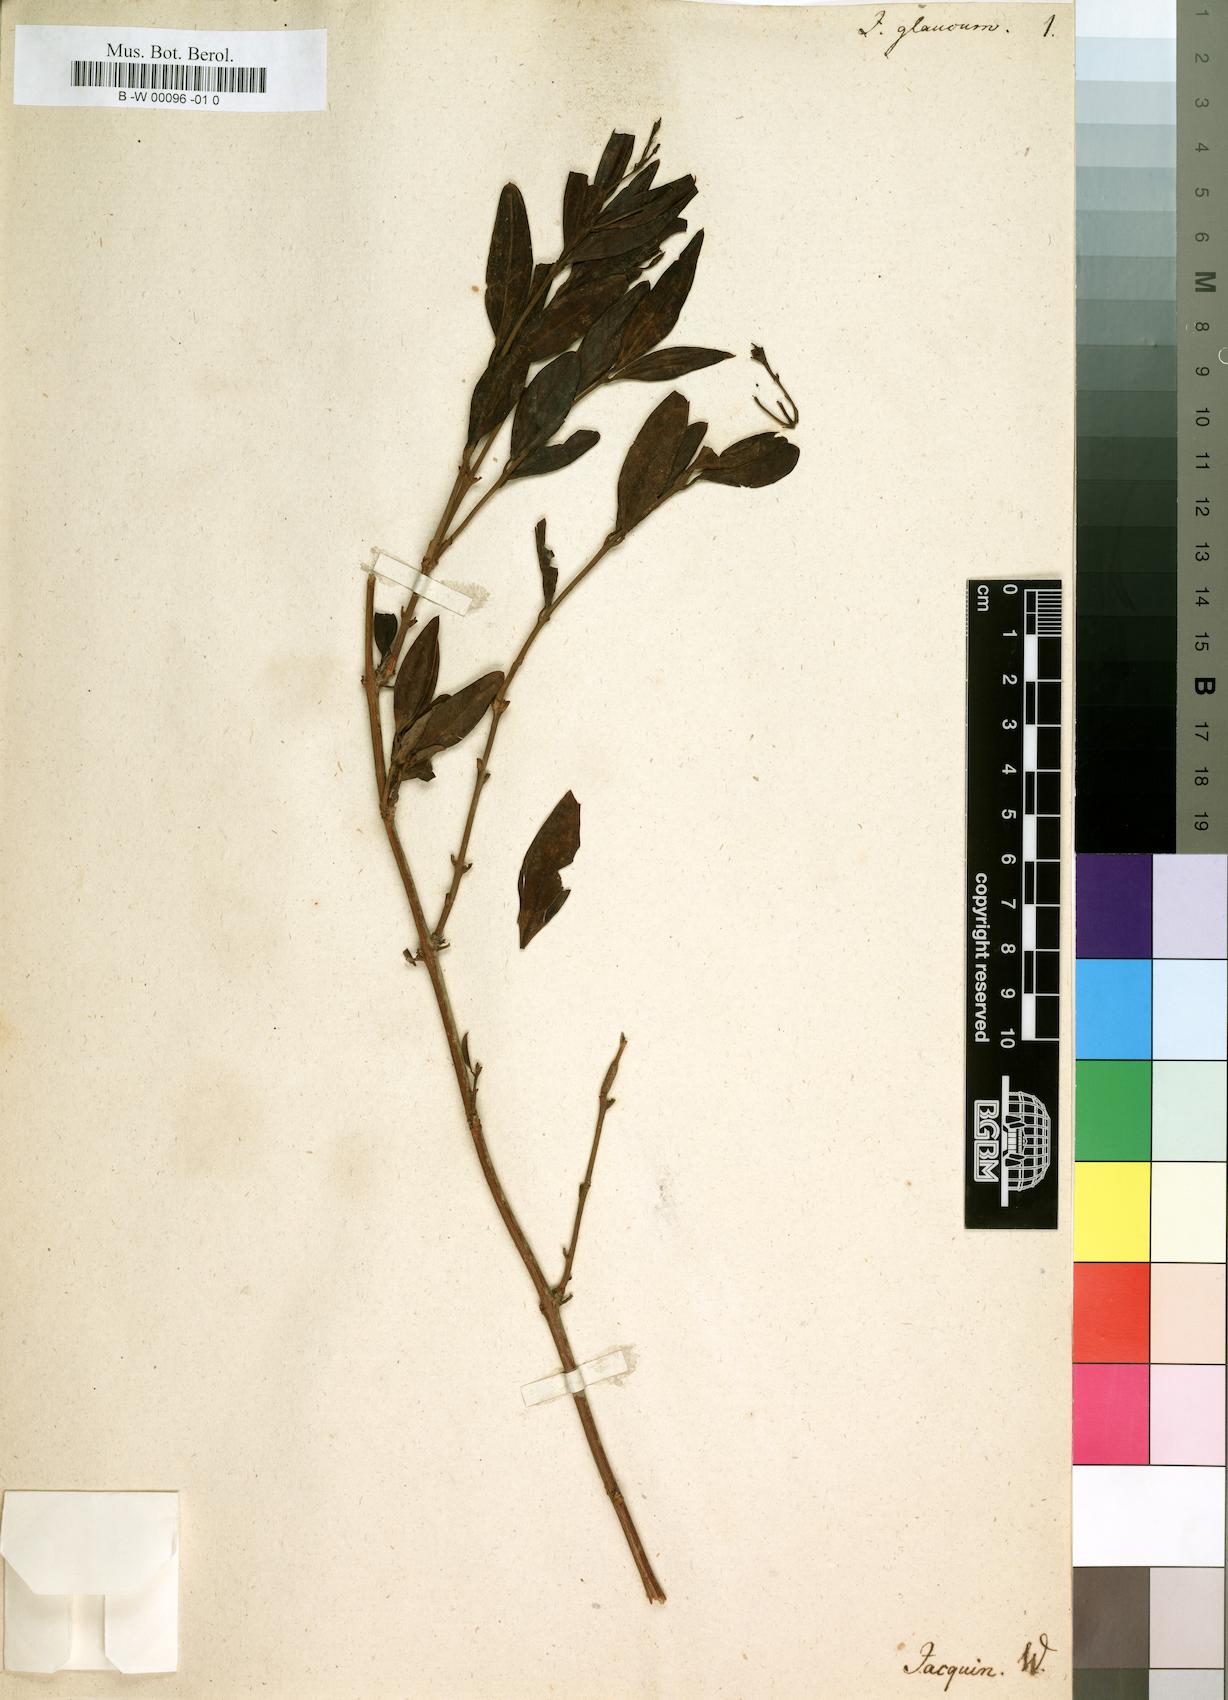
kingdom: Plantae
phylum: Tracheophyta
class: Magnoliopsida
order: Lamiales
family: Oleaceae
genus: Jasminum
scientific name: Jasminum glaucum
